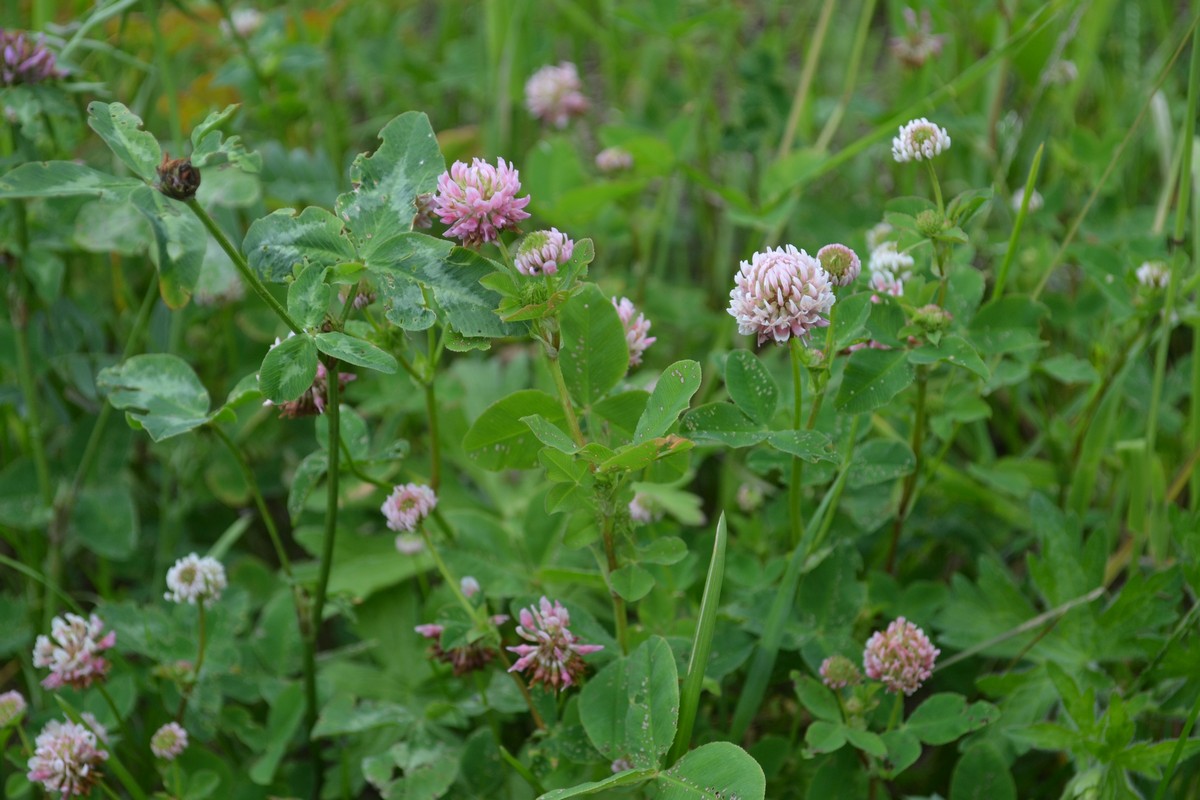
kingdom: Plantae
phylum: Tracheophyta
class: Magnoliopsida
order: Fabales
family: Fabaceae
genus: Trifolium
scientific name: Trifolium hybridum
